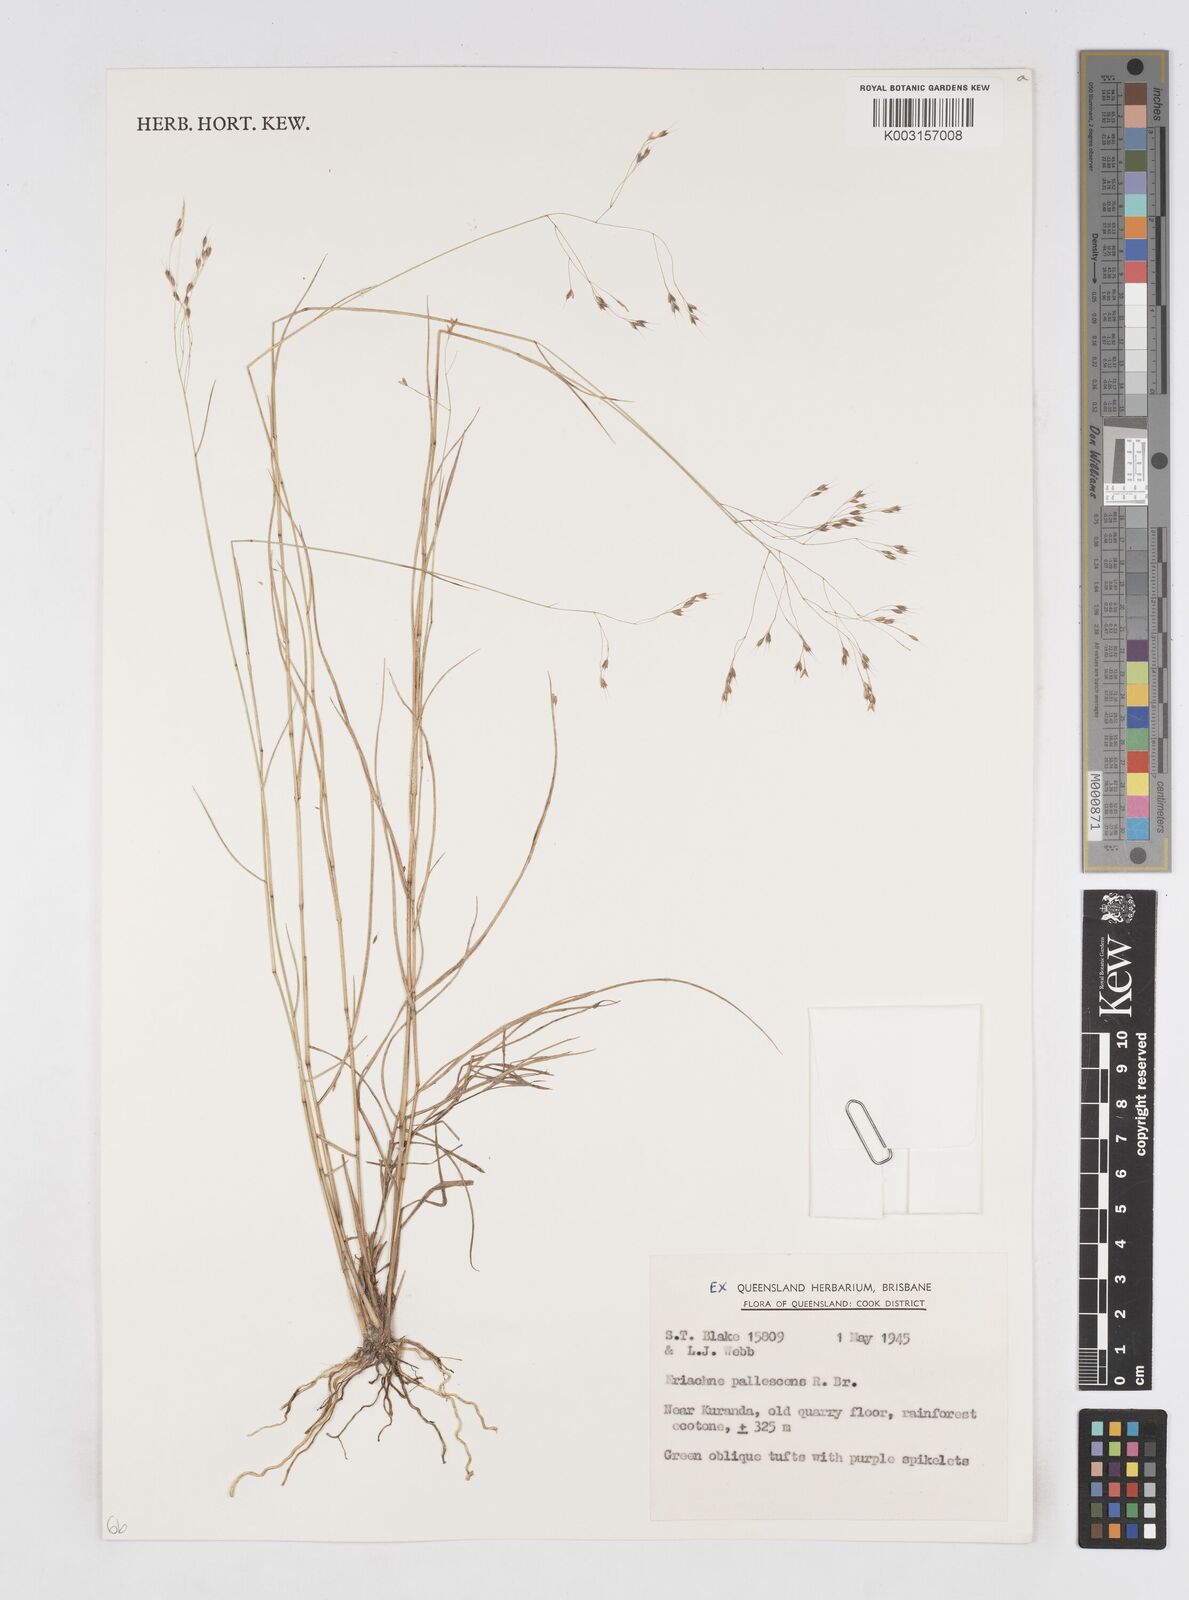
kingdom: Plantae
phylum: Tracheophyta
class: Liliopsida
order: Poales
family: Poaceae
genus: Eriachne
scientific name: Eriachne pallescens
